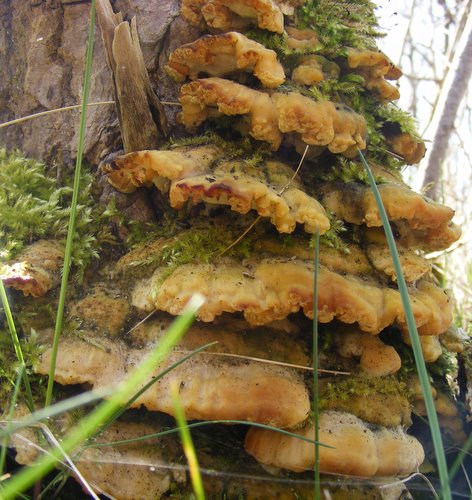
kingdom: Fungi
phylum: Basidiomycota
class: Agaricomycetes
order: Hymenochaetales
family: Oxyporaceae
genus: Oxyporus
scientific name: Oxyporus populinus
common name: sammenvokset trylleporesvamp
